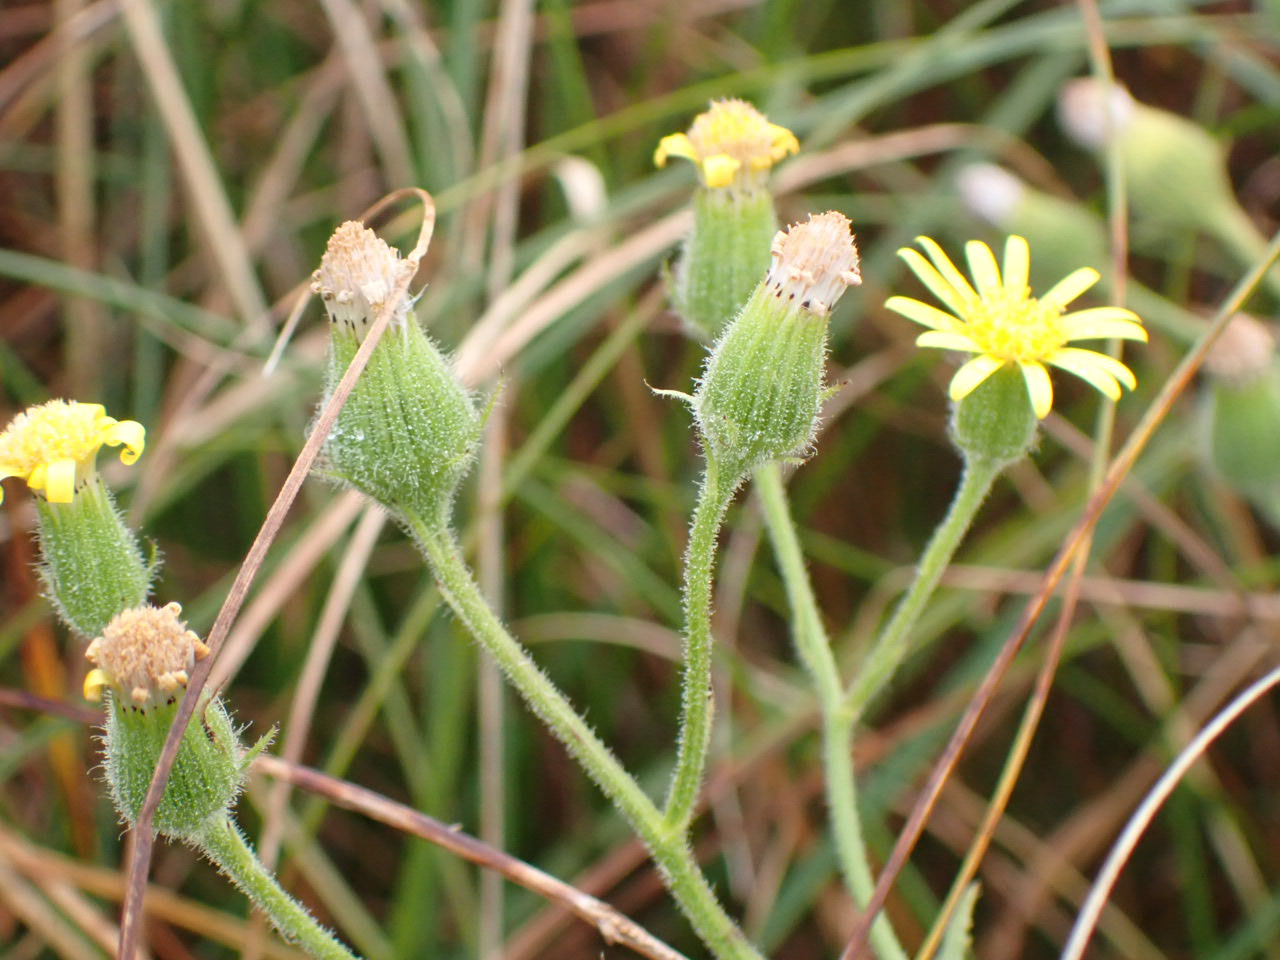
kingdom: Plantae
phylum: Tracheophyta
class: Magnoliopsida
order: Asterales
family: Asteraceae
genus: Senecio
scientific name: Senecio viscosus
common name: Klæbrig brandbæger
